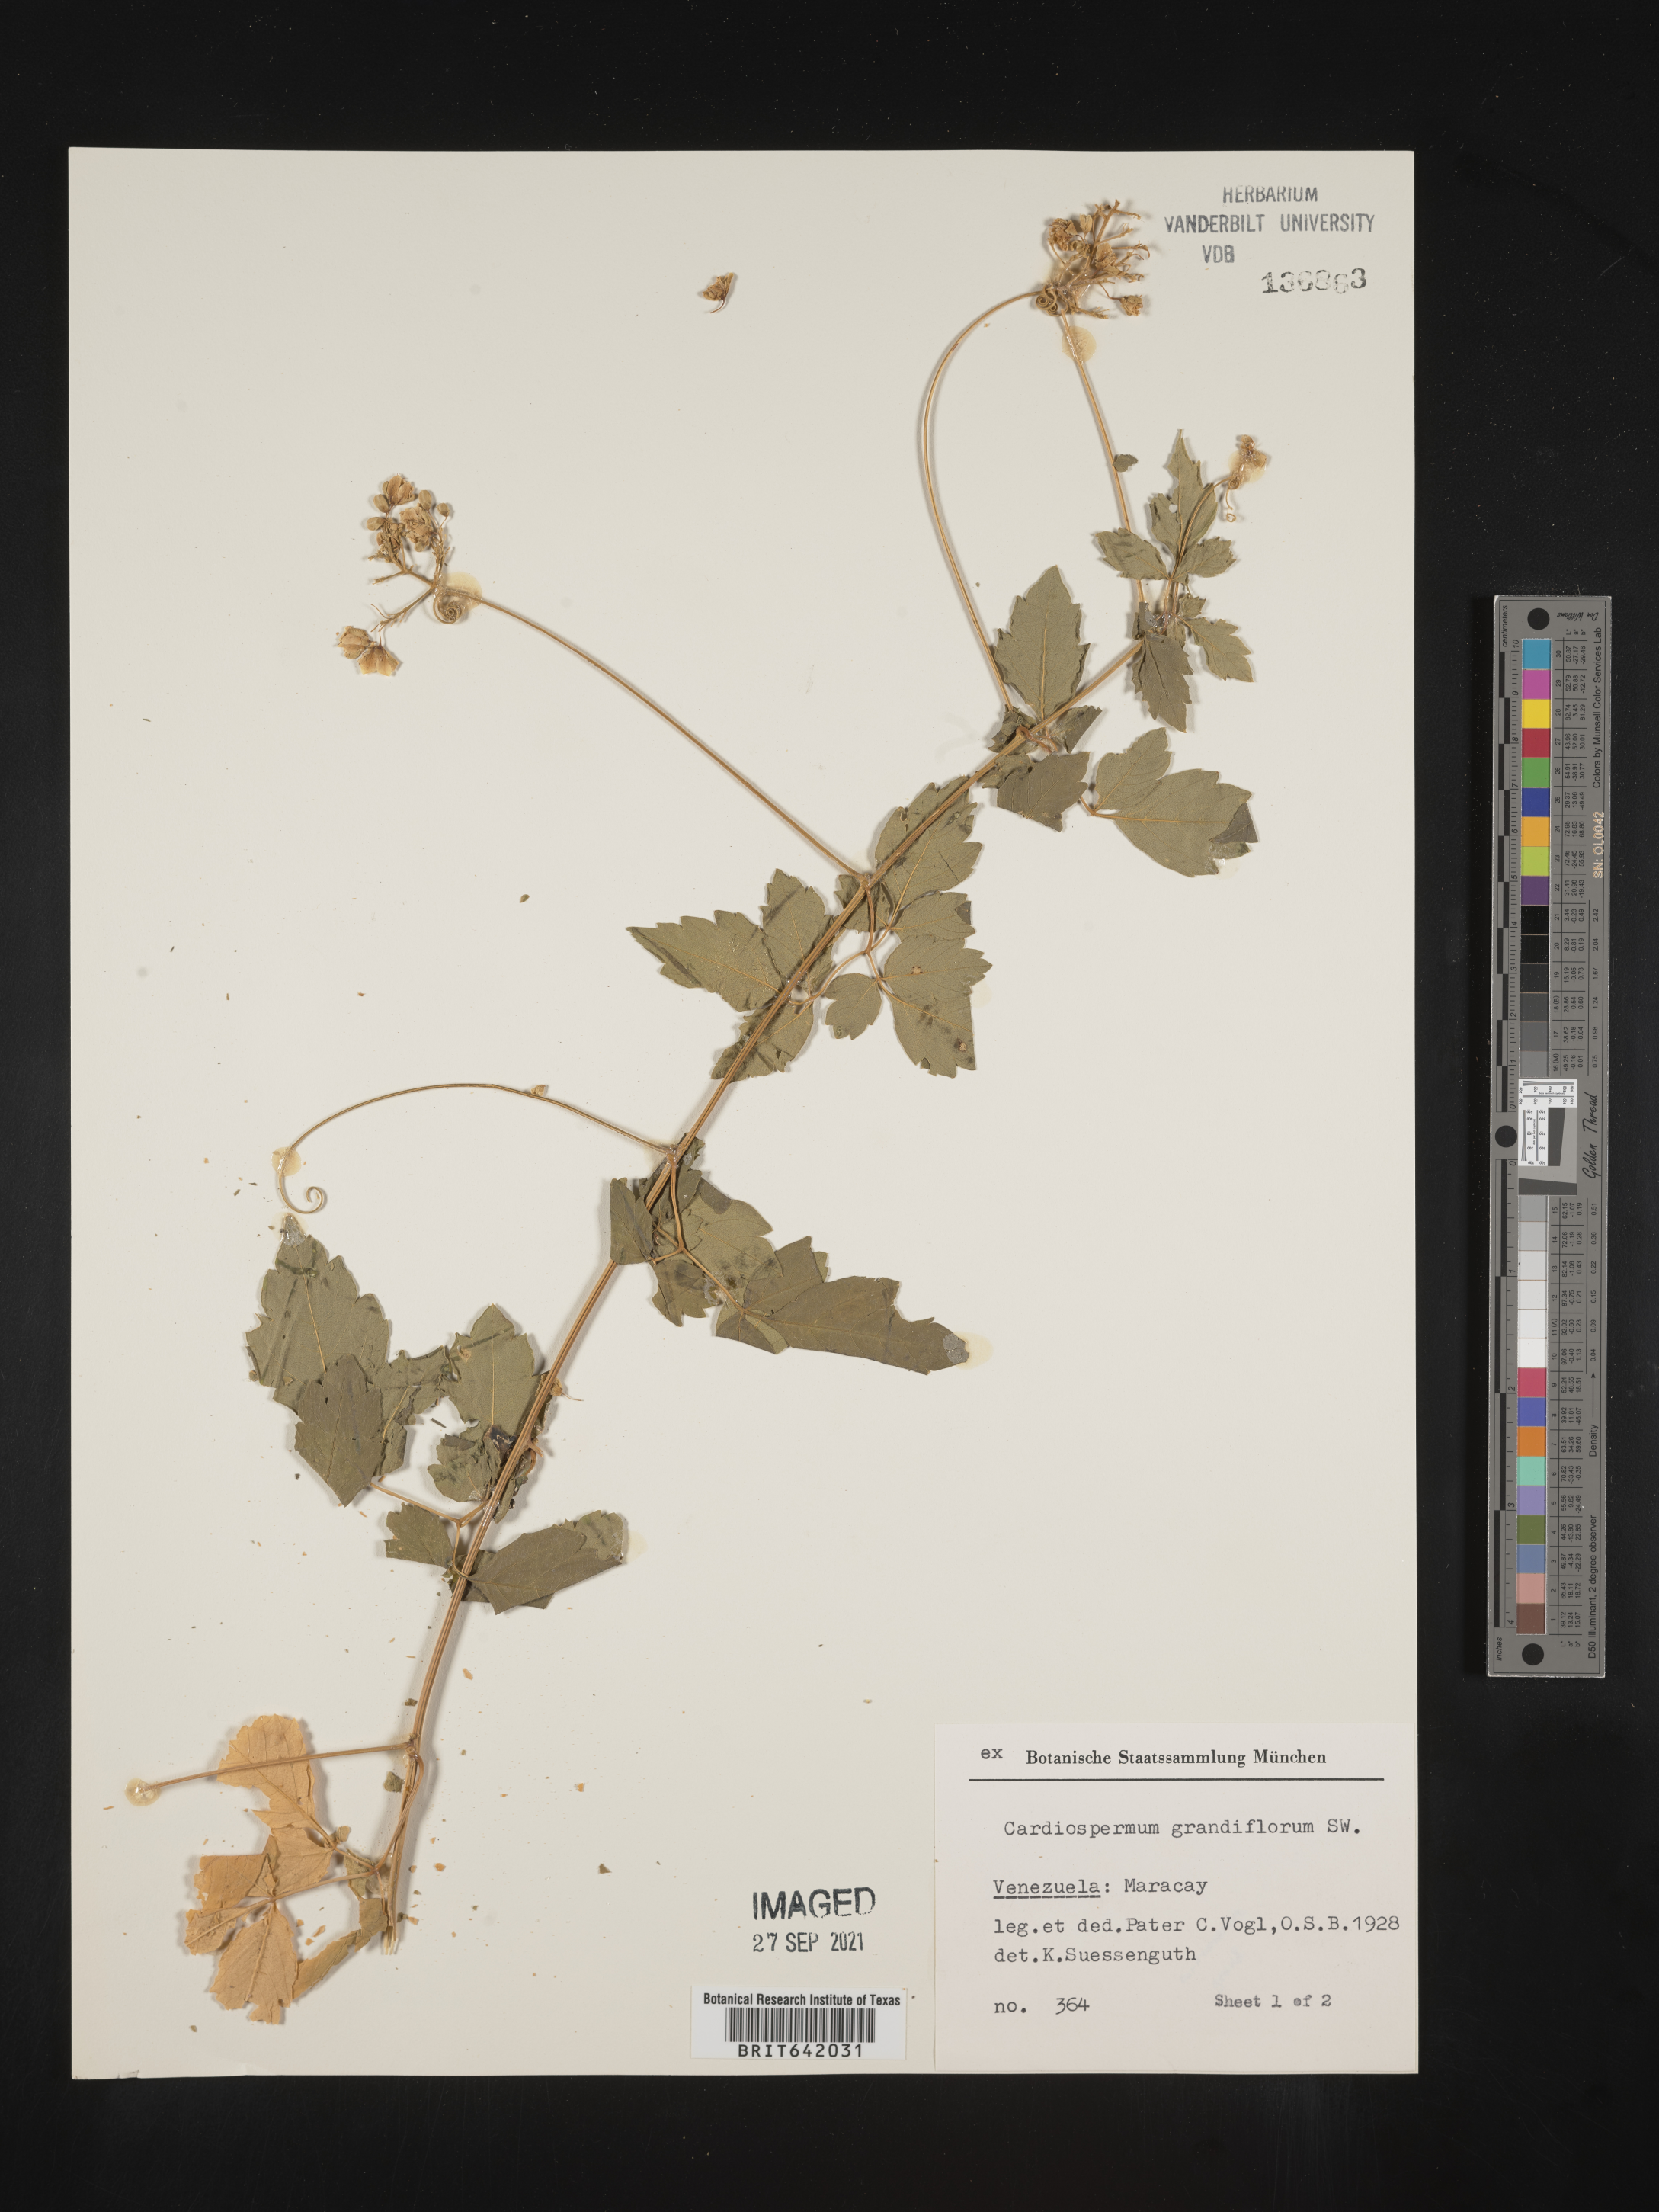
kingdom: Plantae
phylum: Tracheophyta
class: Magnoliopsida
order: Sapindales
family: Sapindaceae
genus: Cardiospermum
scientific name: Cardiospermum
